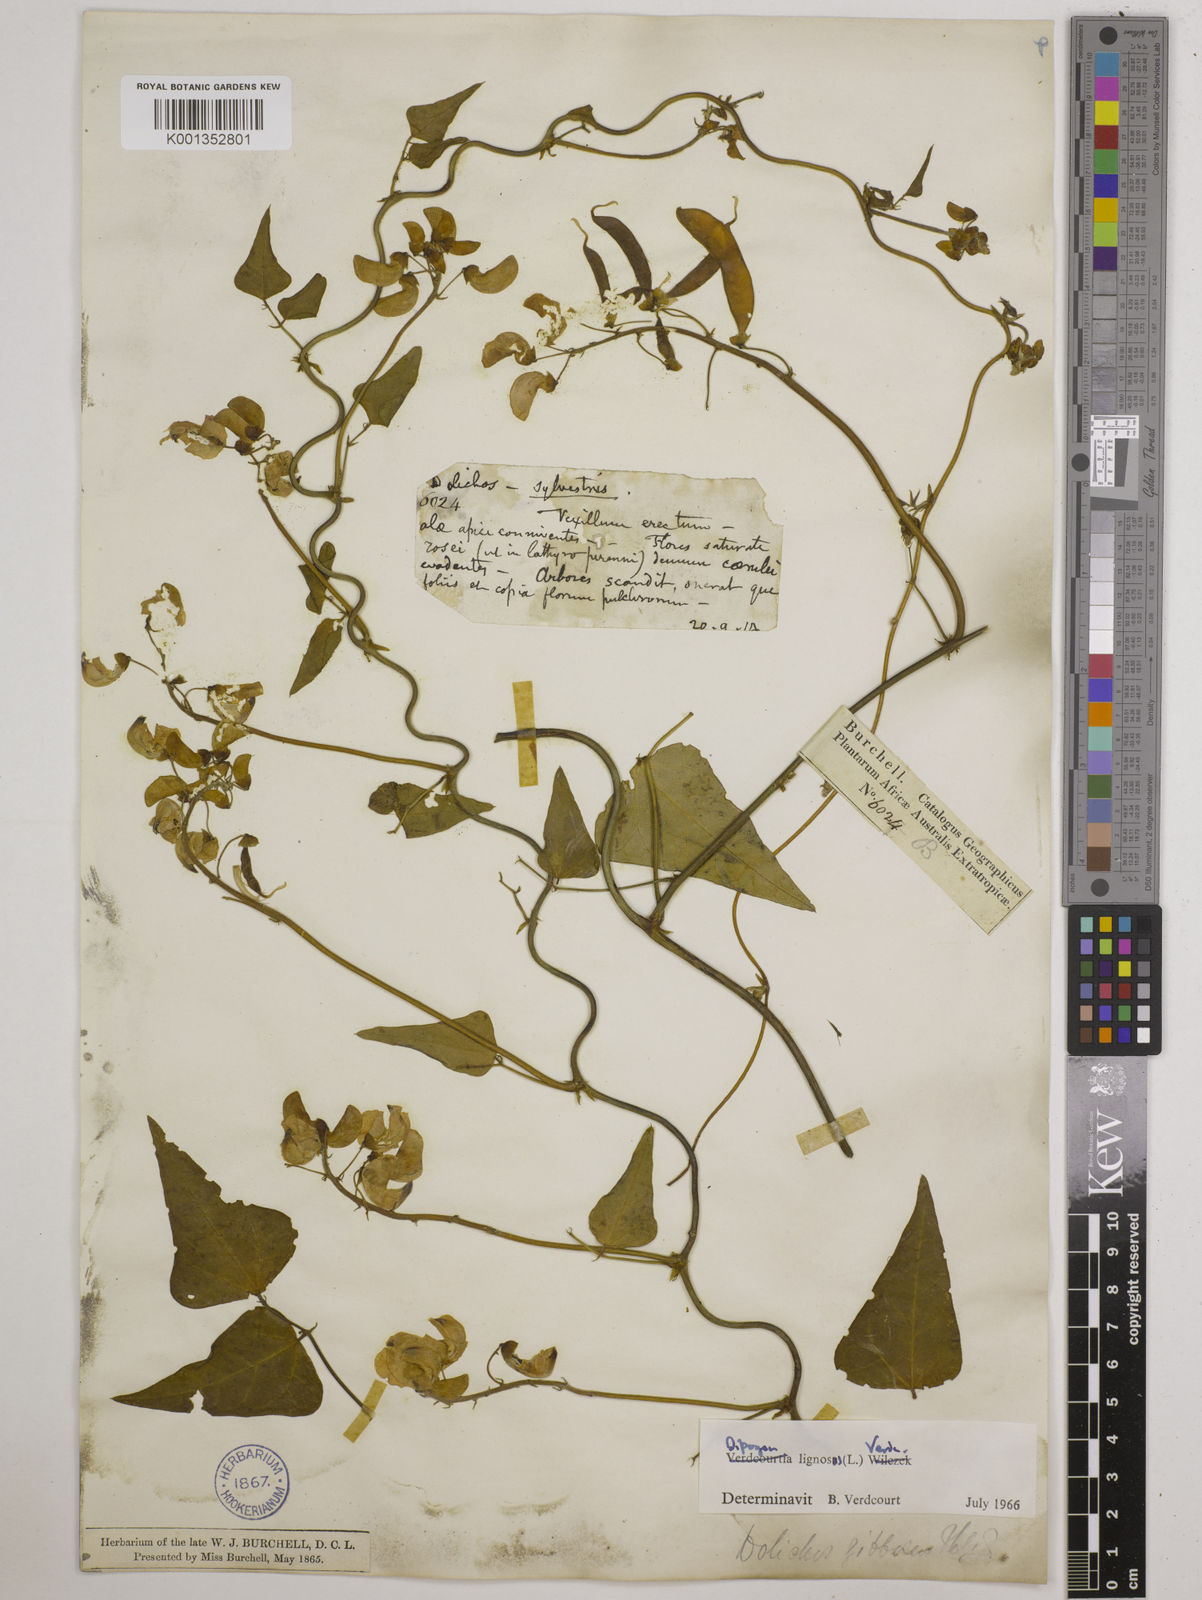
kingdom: Plantae
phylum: Tracheophyta
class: Magnoliopsida
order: Fabales
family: Fabaceae
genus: Dipogon
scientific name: Dipogon lignosus
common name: Okie bean
